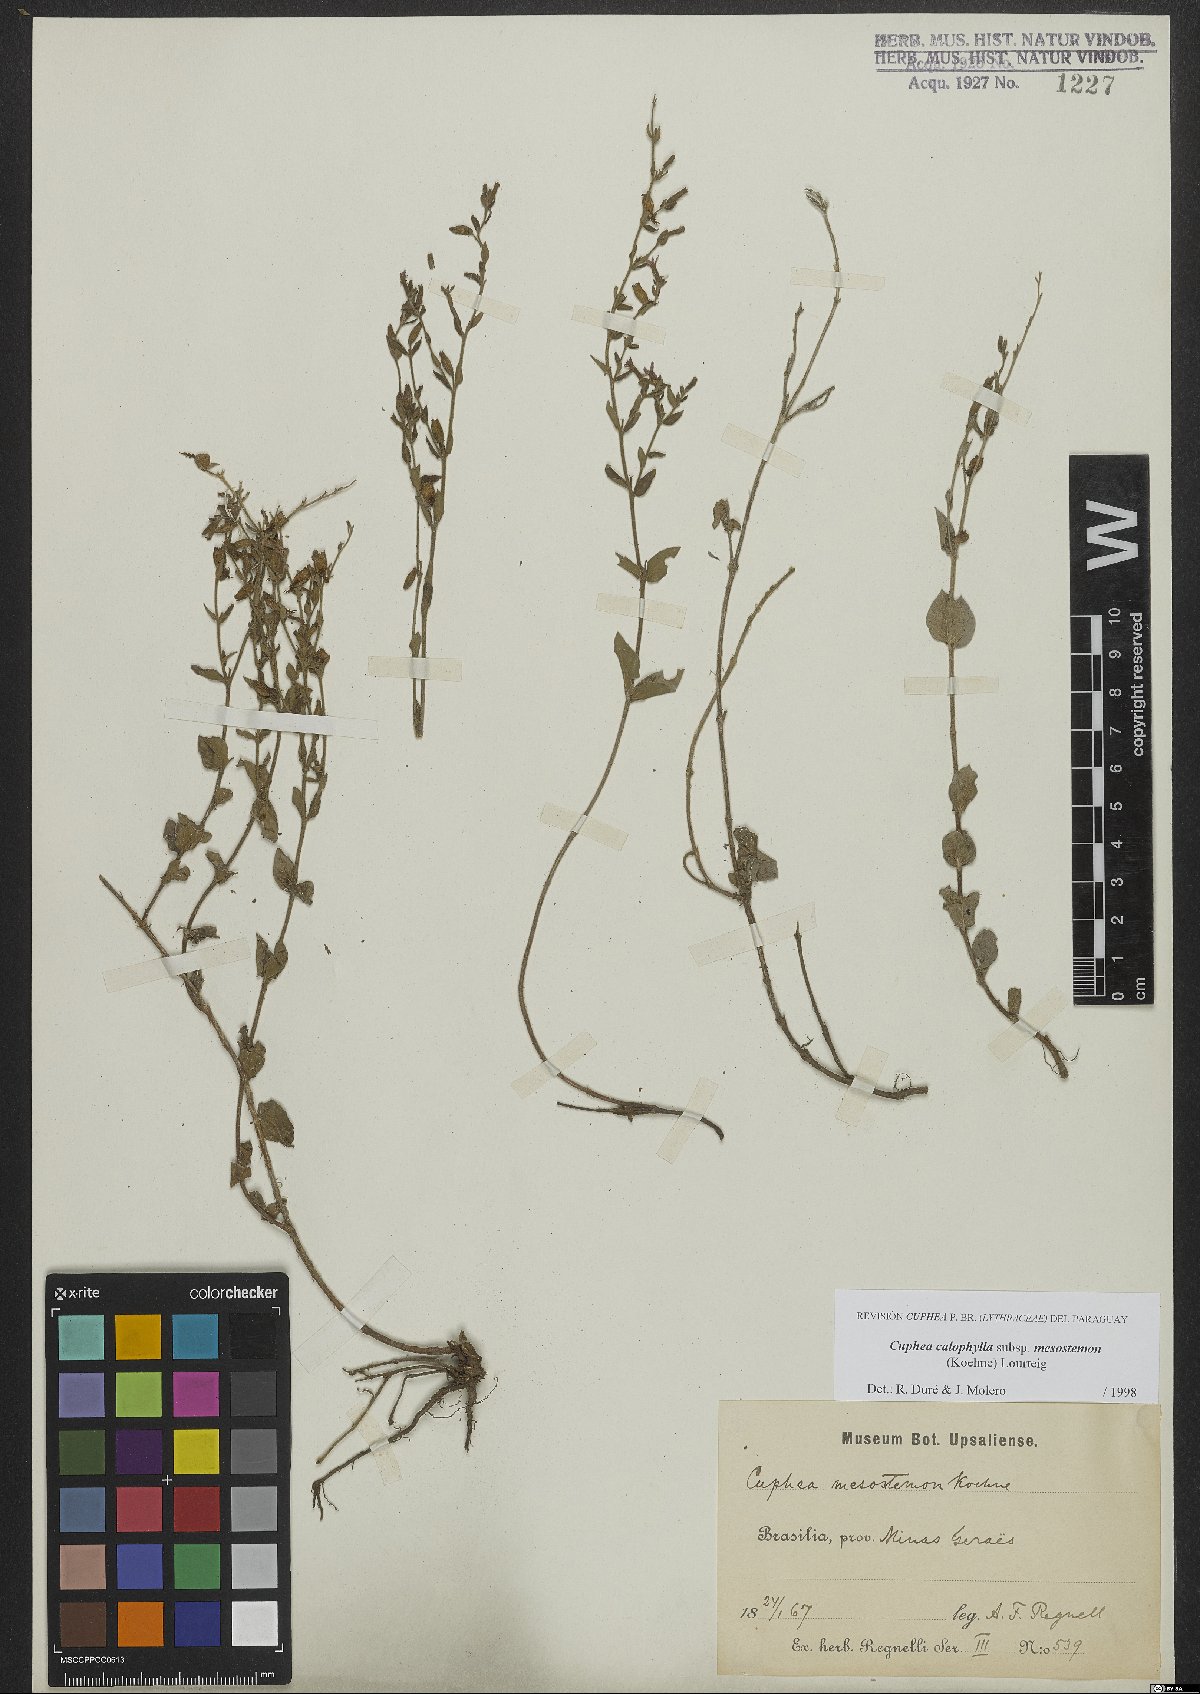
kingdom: Plantae
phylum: Tracheophyta
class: Magnoliopsida
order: Myrtales
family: Lythraceae
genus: Cuphea
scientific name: Cuphea calophylla
